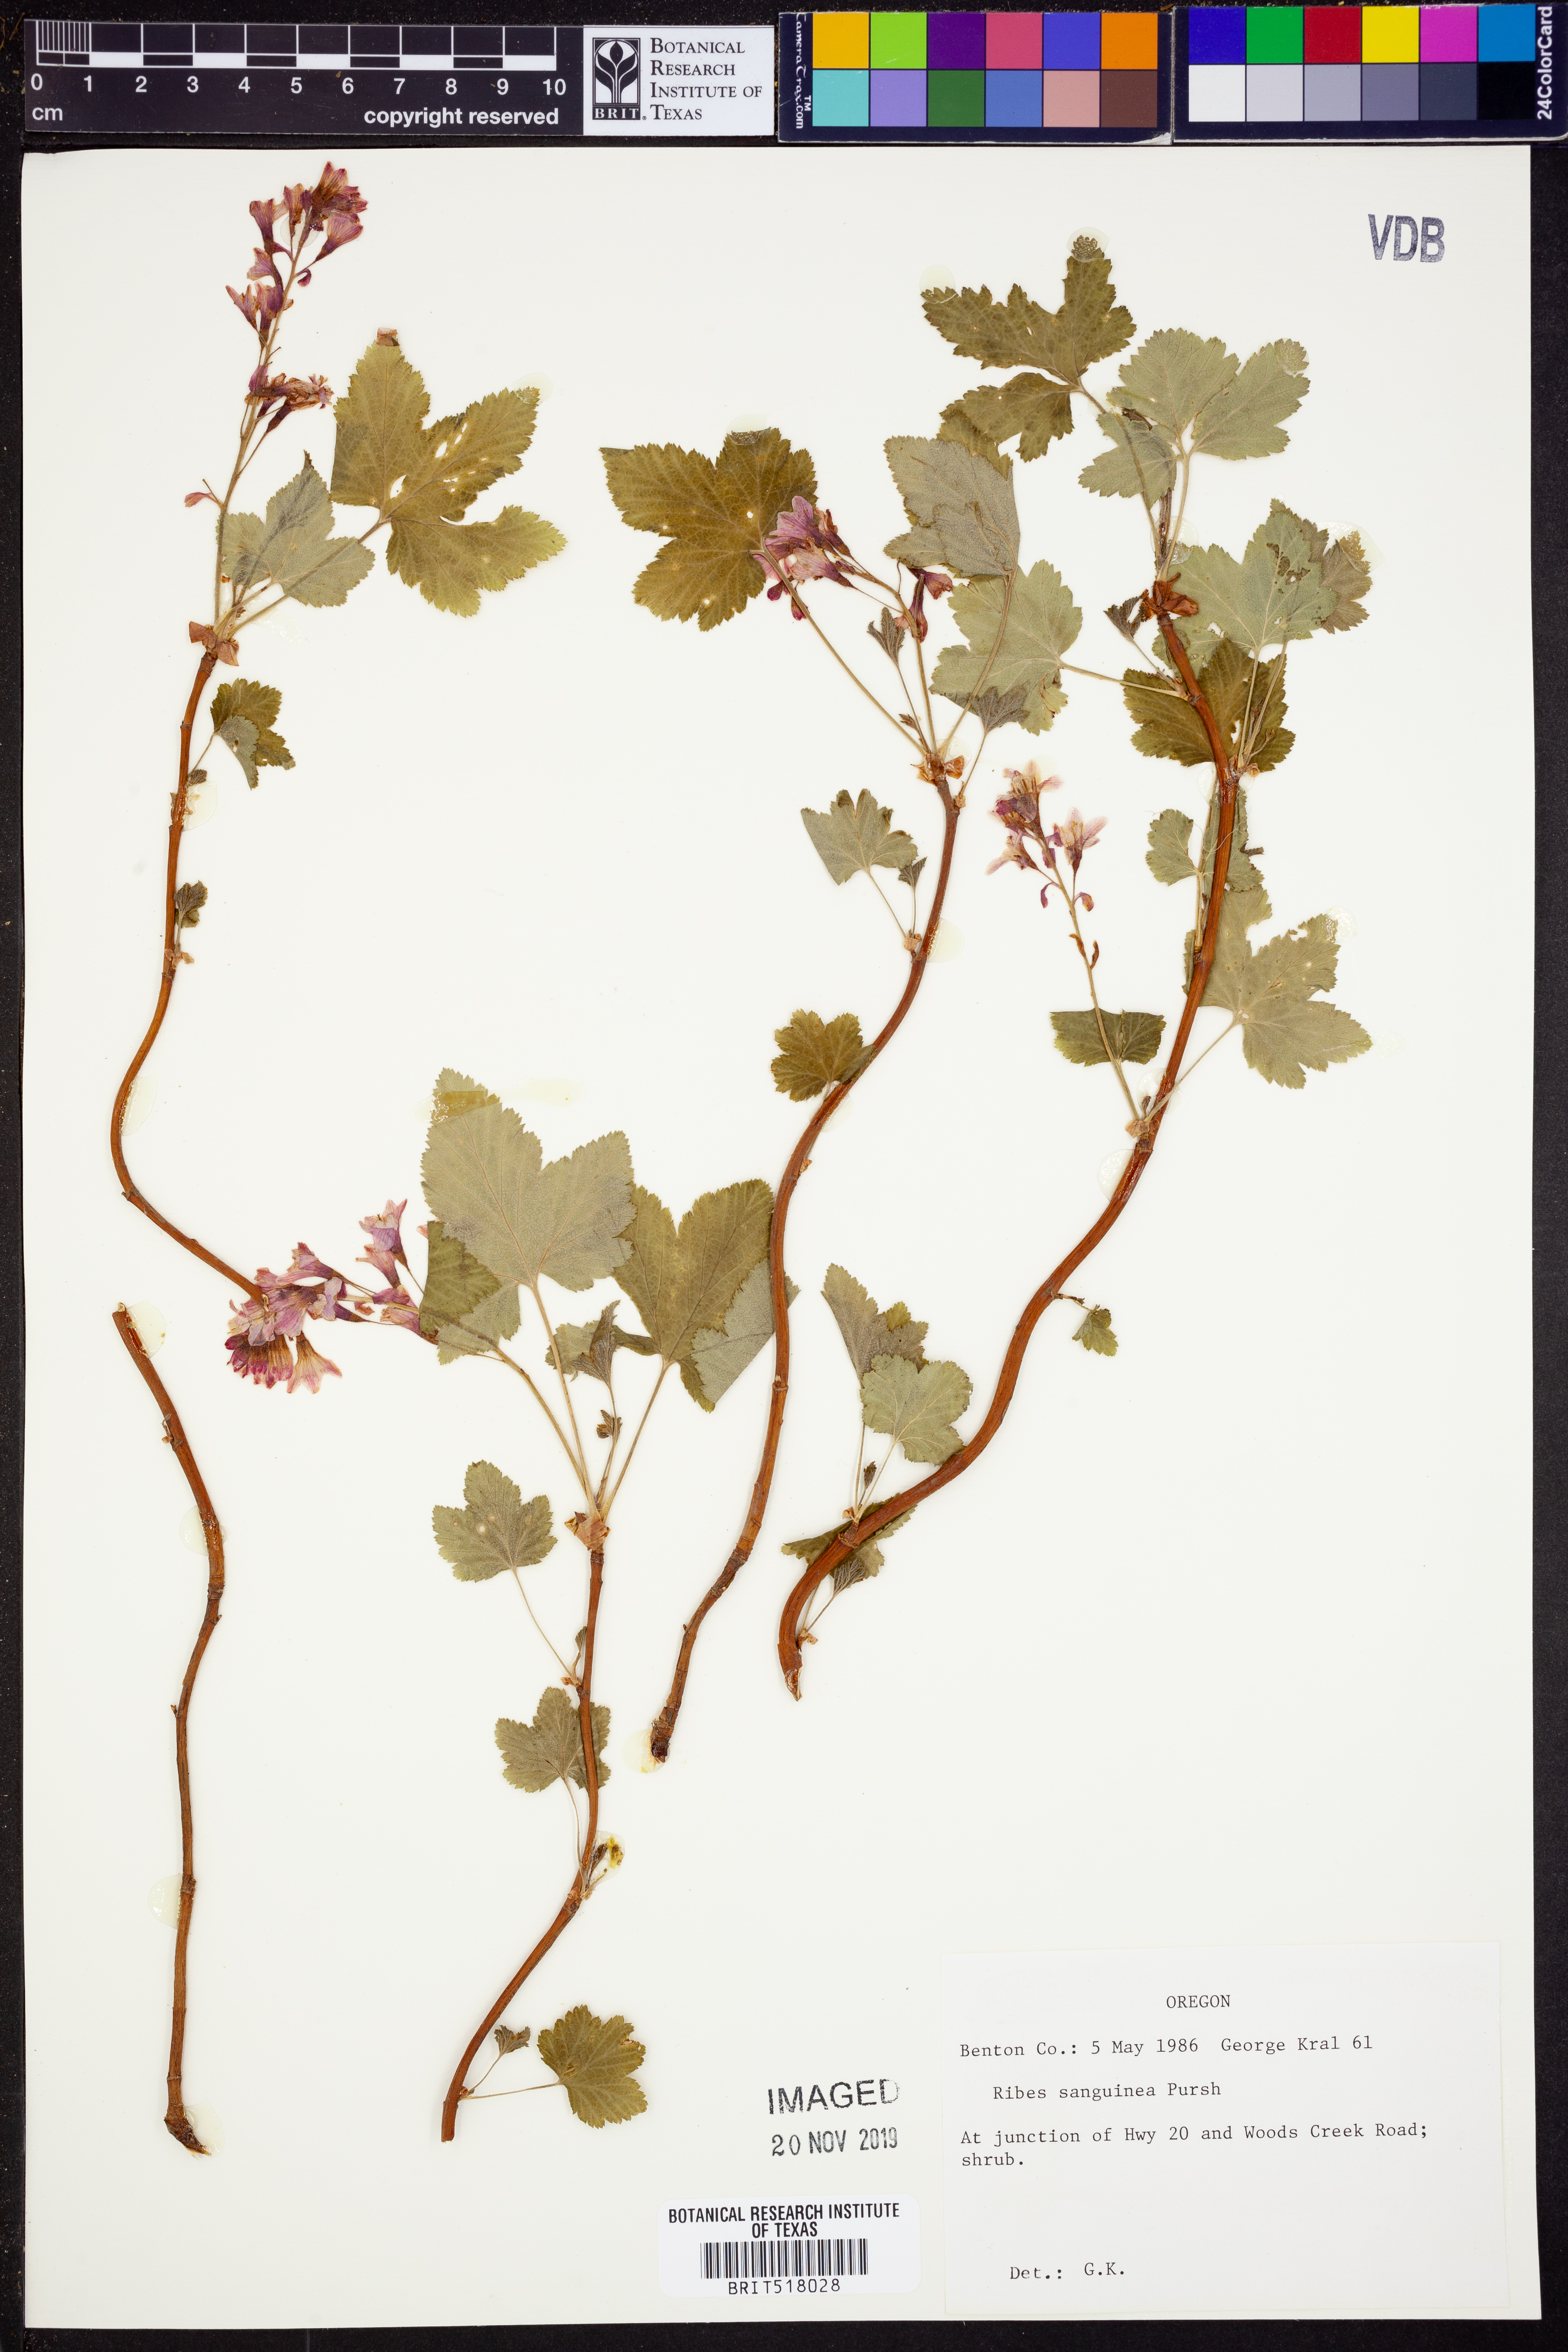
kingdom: Plantae
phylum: Tracheophyta
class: Magnoliopsida
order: Saxifragales
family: Grossulariaceae
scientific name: Grossulariaceae
